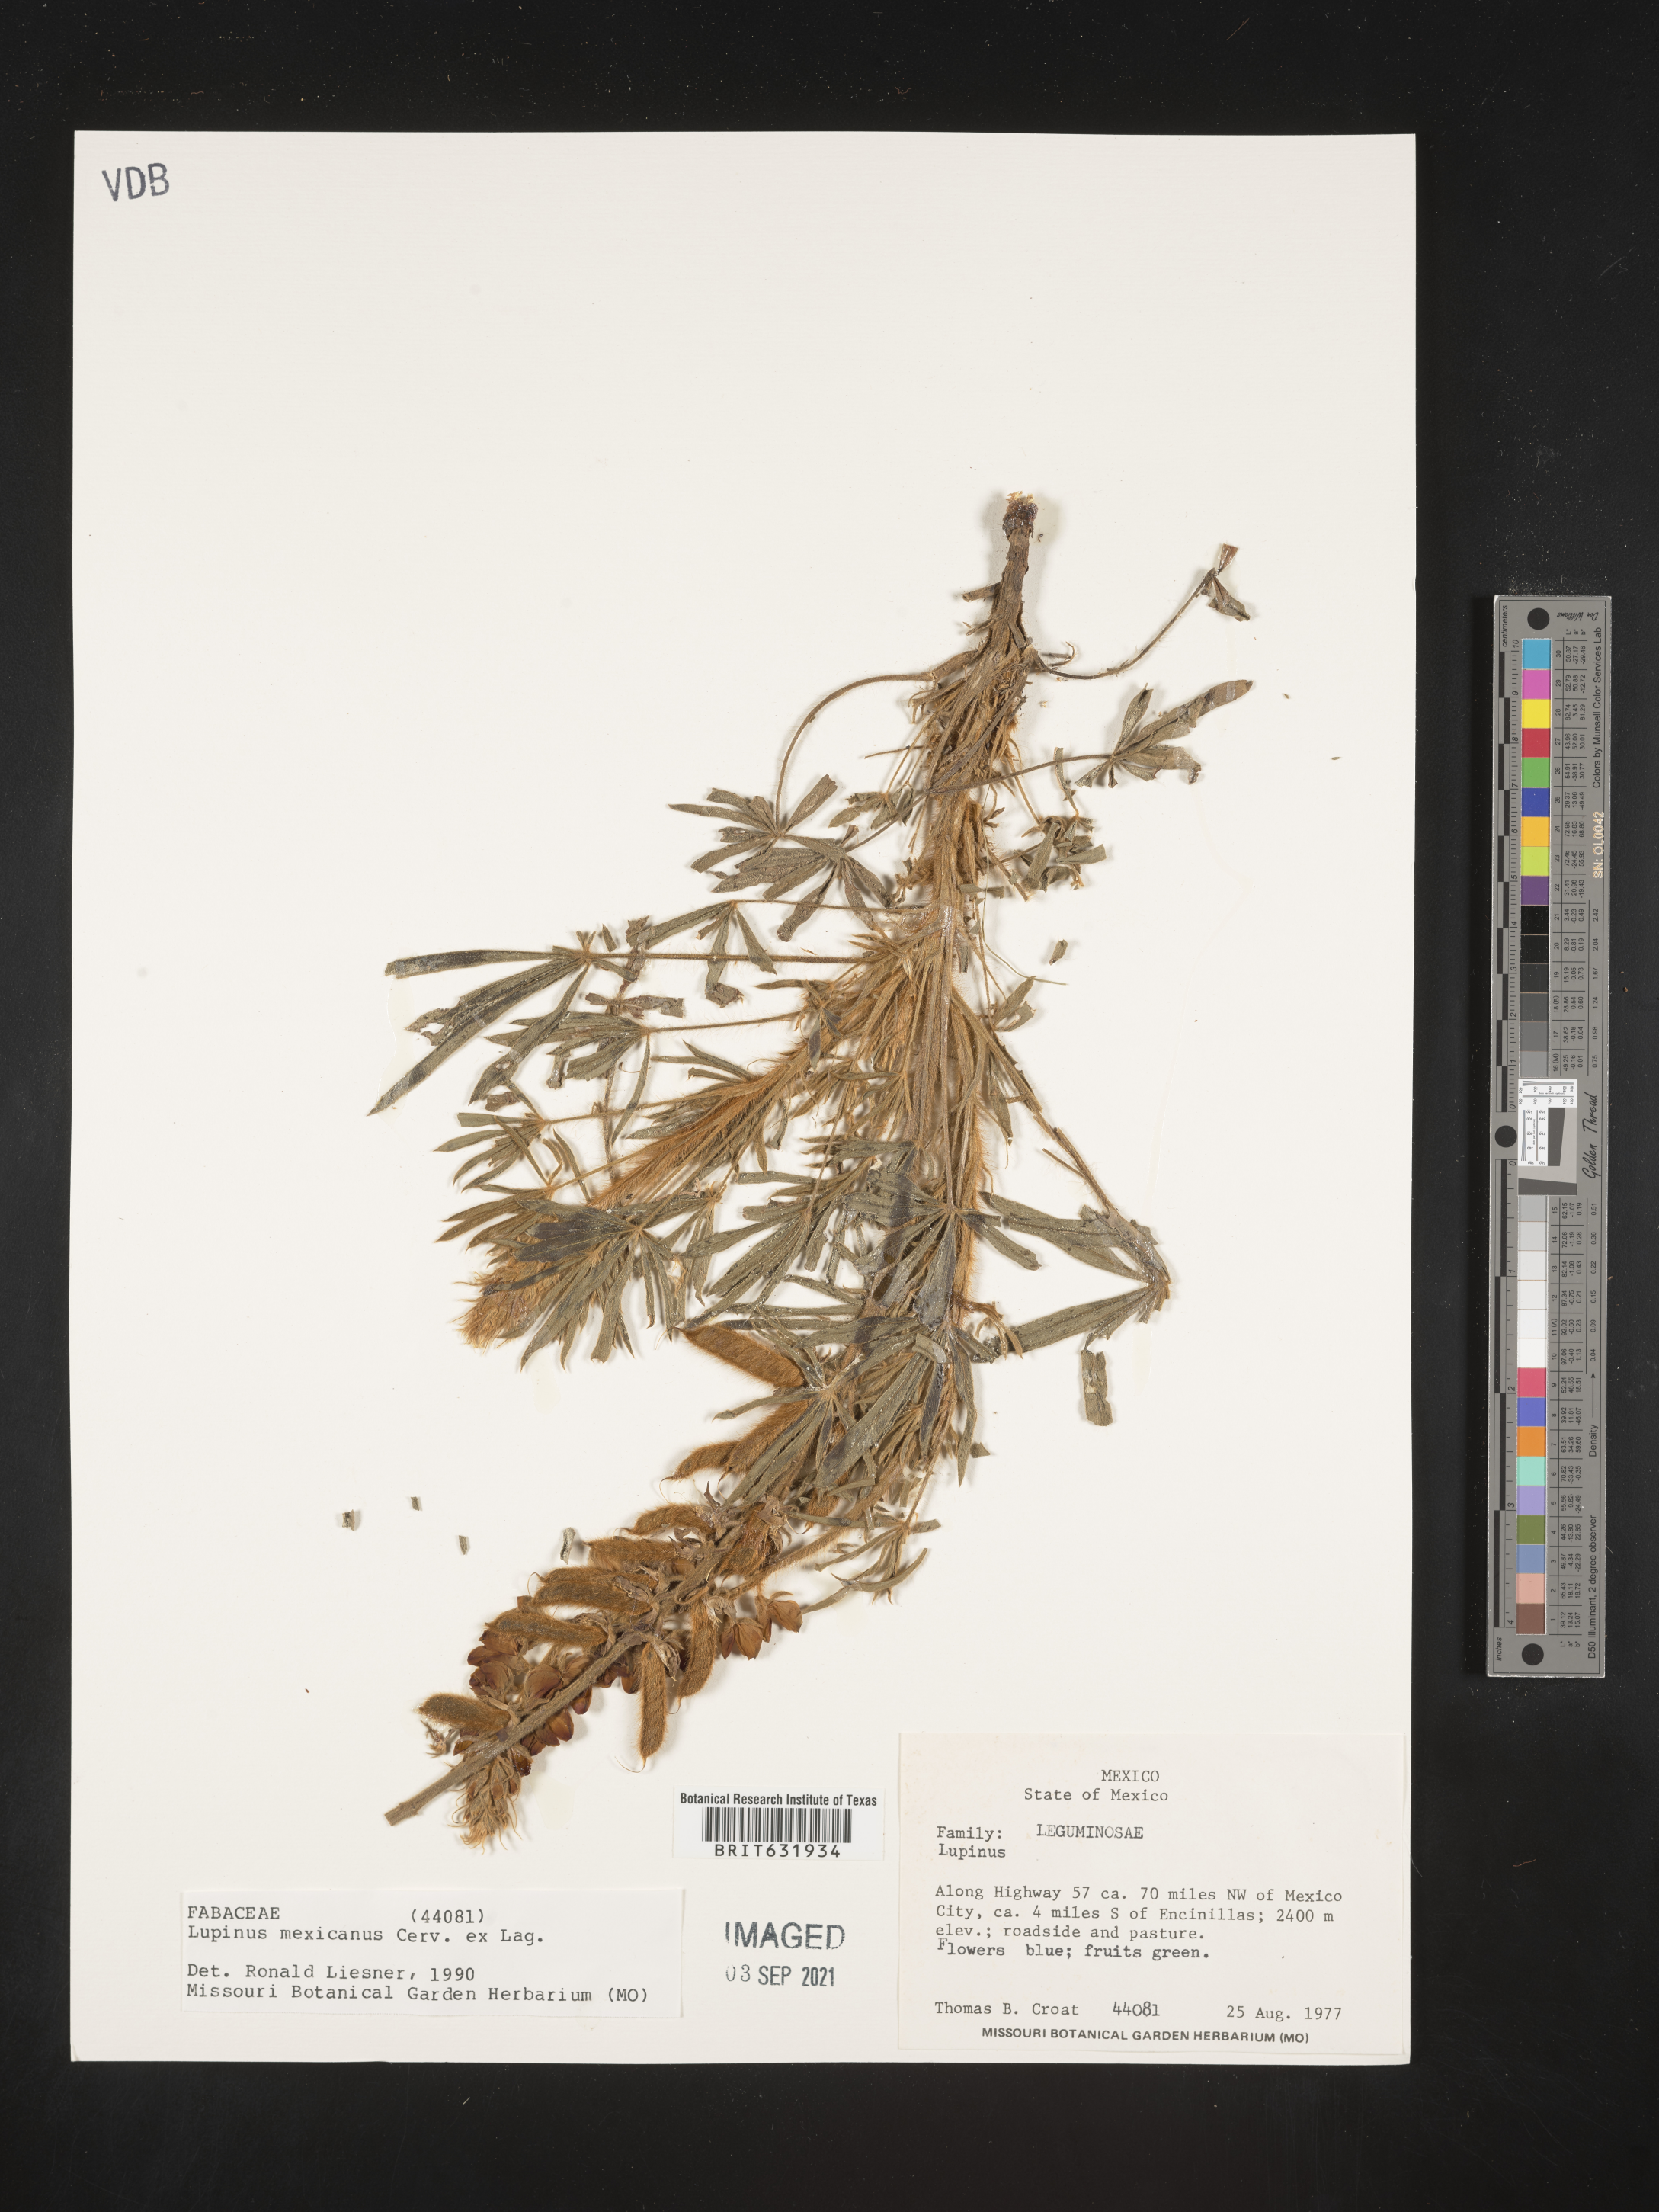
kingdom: Plantae
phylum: Tracheophyta
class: Magnoliopsida
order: Fabales
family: Fabaceae
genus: Lupinus
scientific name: Lupinus
